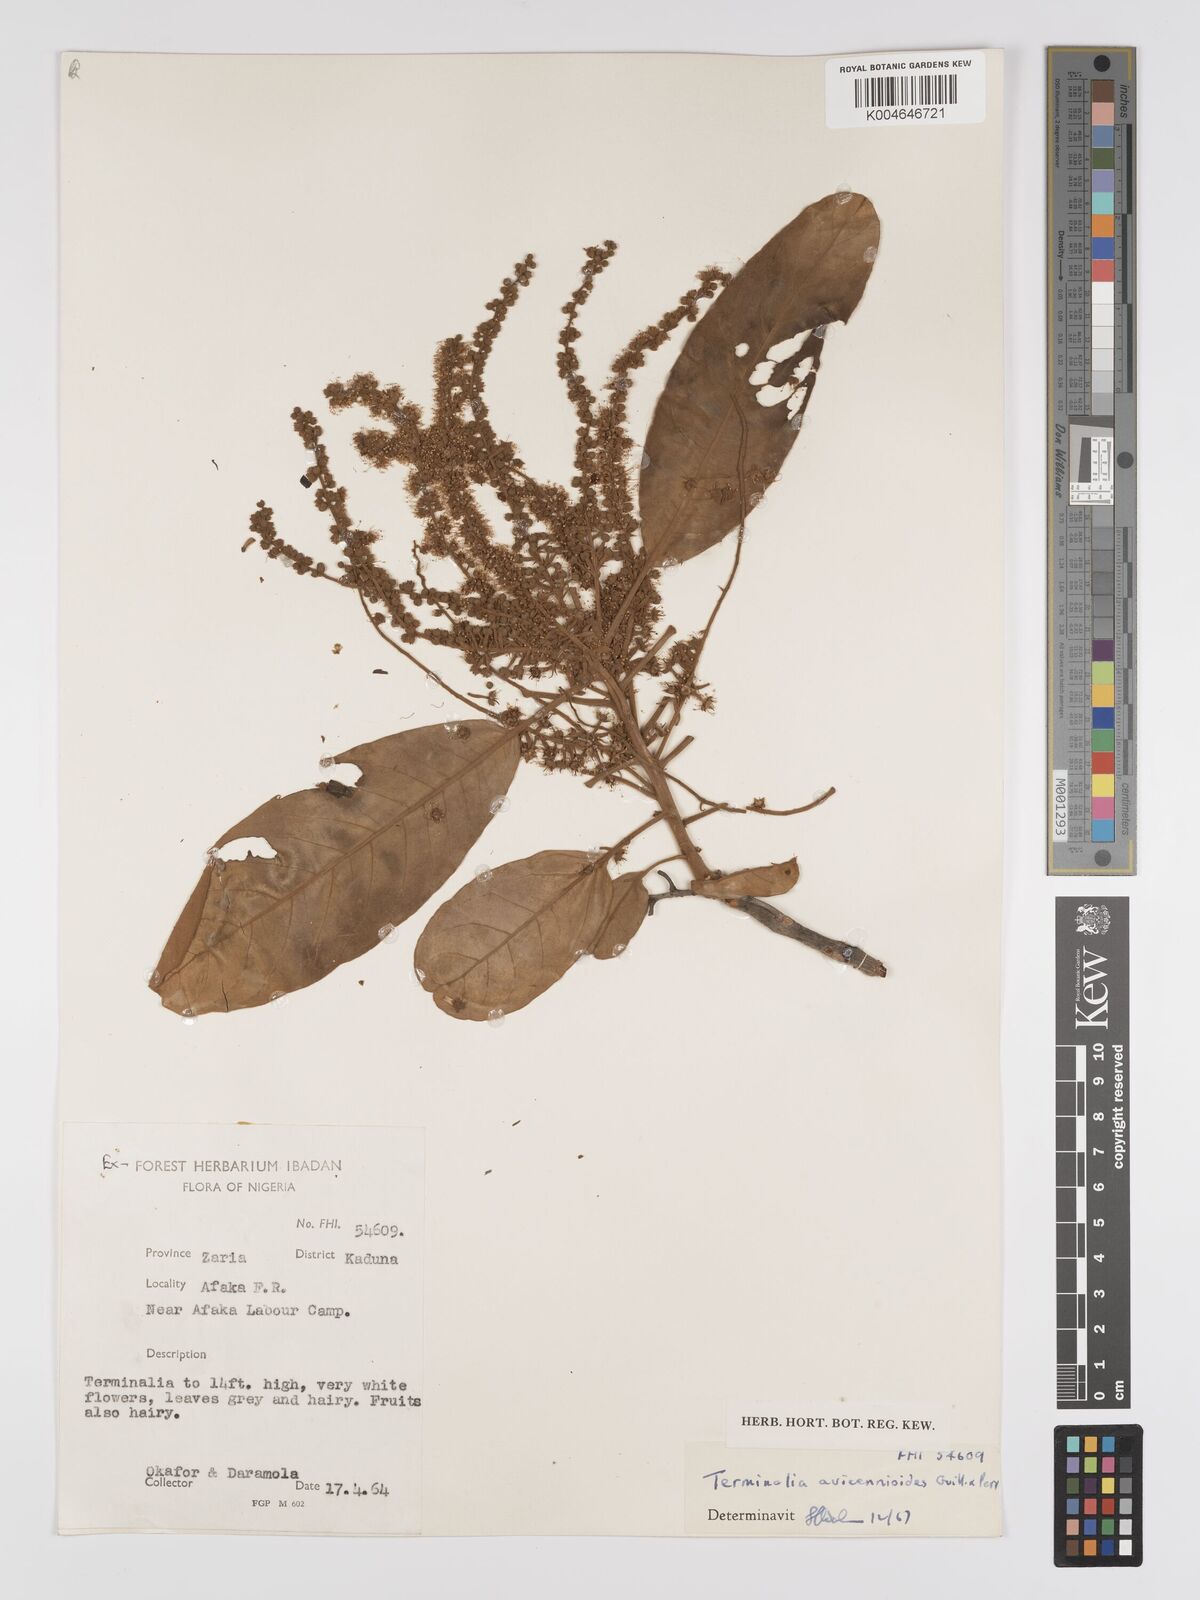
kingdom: Plantae
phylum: Tracheophyta
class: Magnoliopsida
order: Myrtales
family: Combretaceae
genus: Terminalia
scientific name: Terminalia avicennioides
